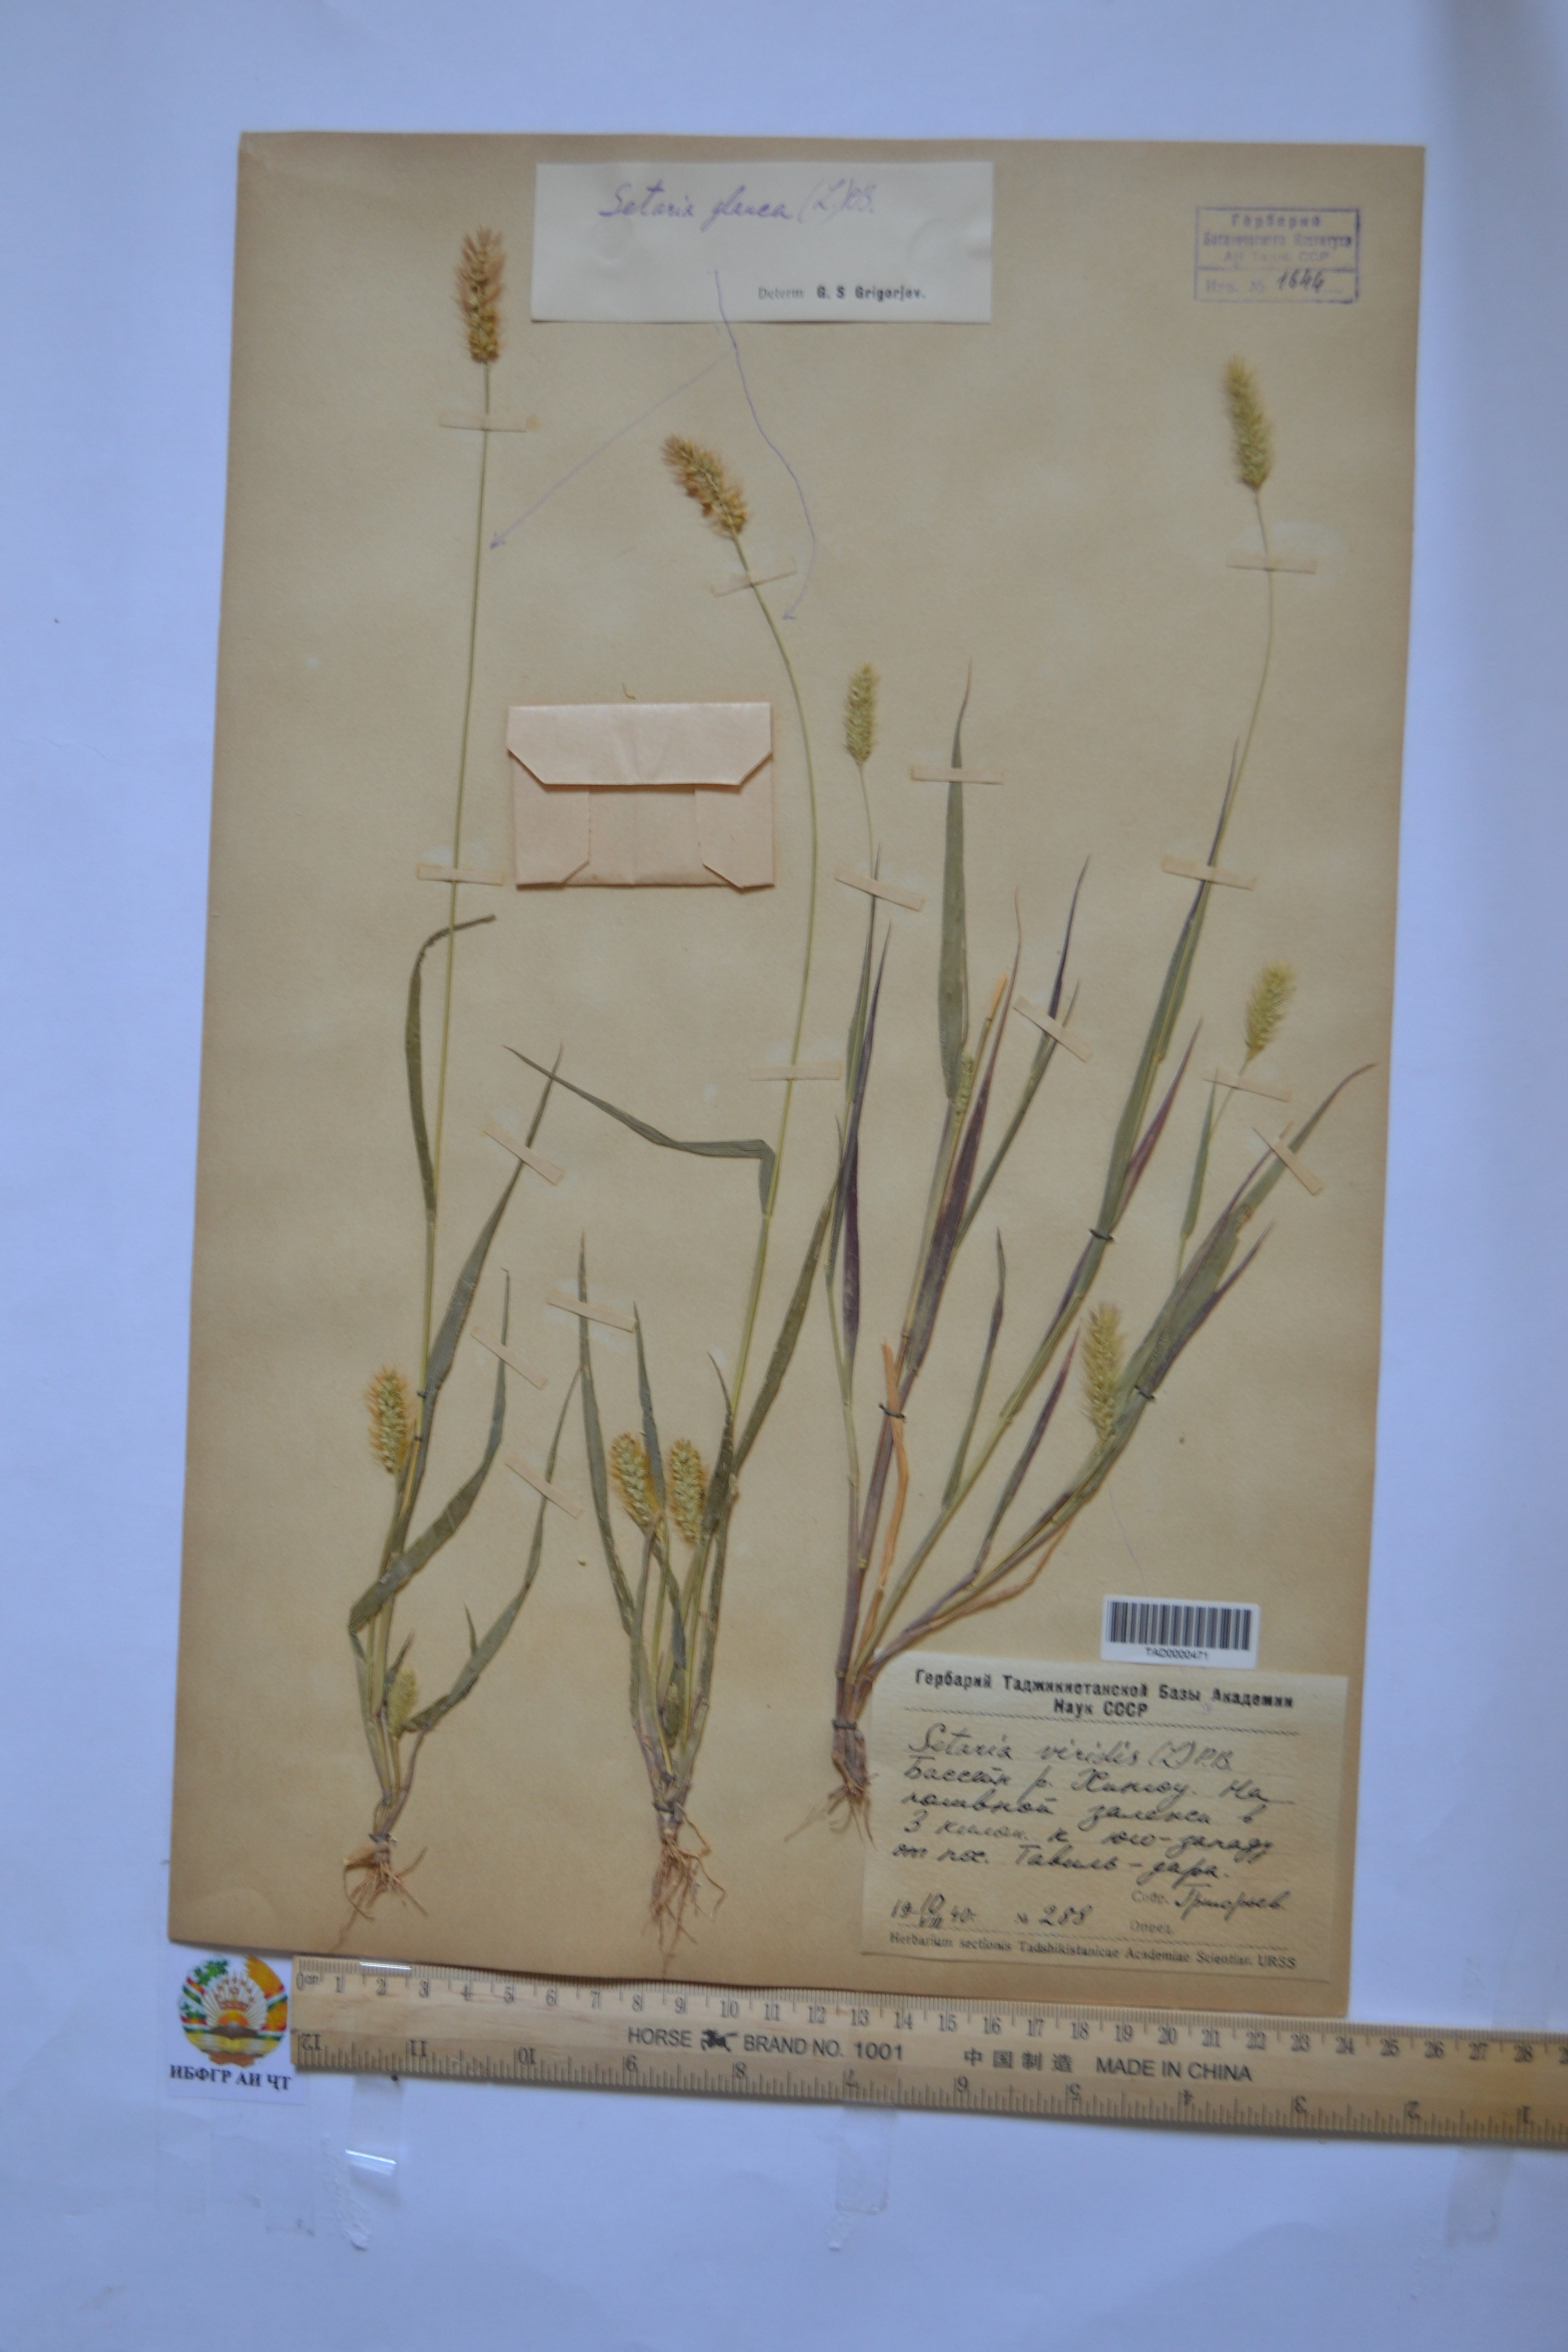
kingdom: Plantae
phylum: Tracheophyta
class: Liliopsida
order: Poales
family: Poaceae
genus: Cenchrus
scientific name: Cenchrus americanus
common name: Pearl millet
